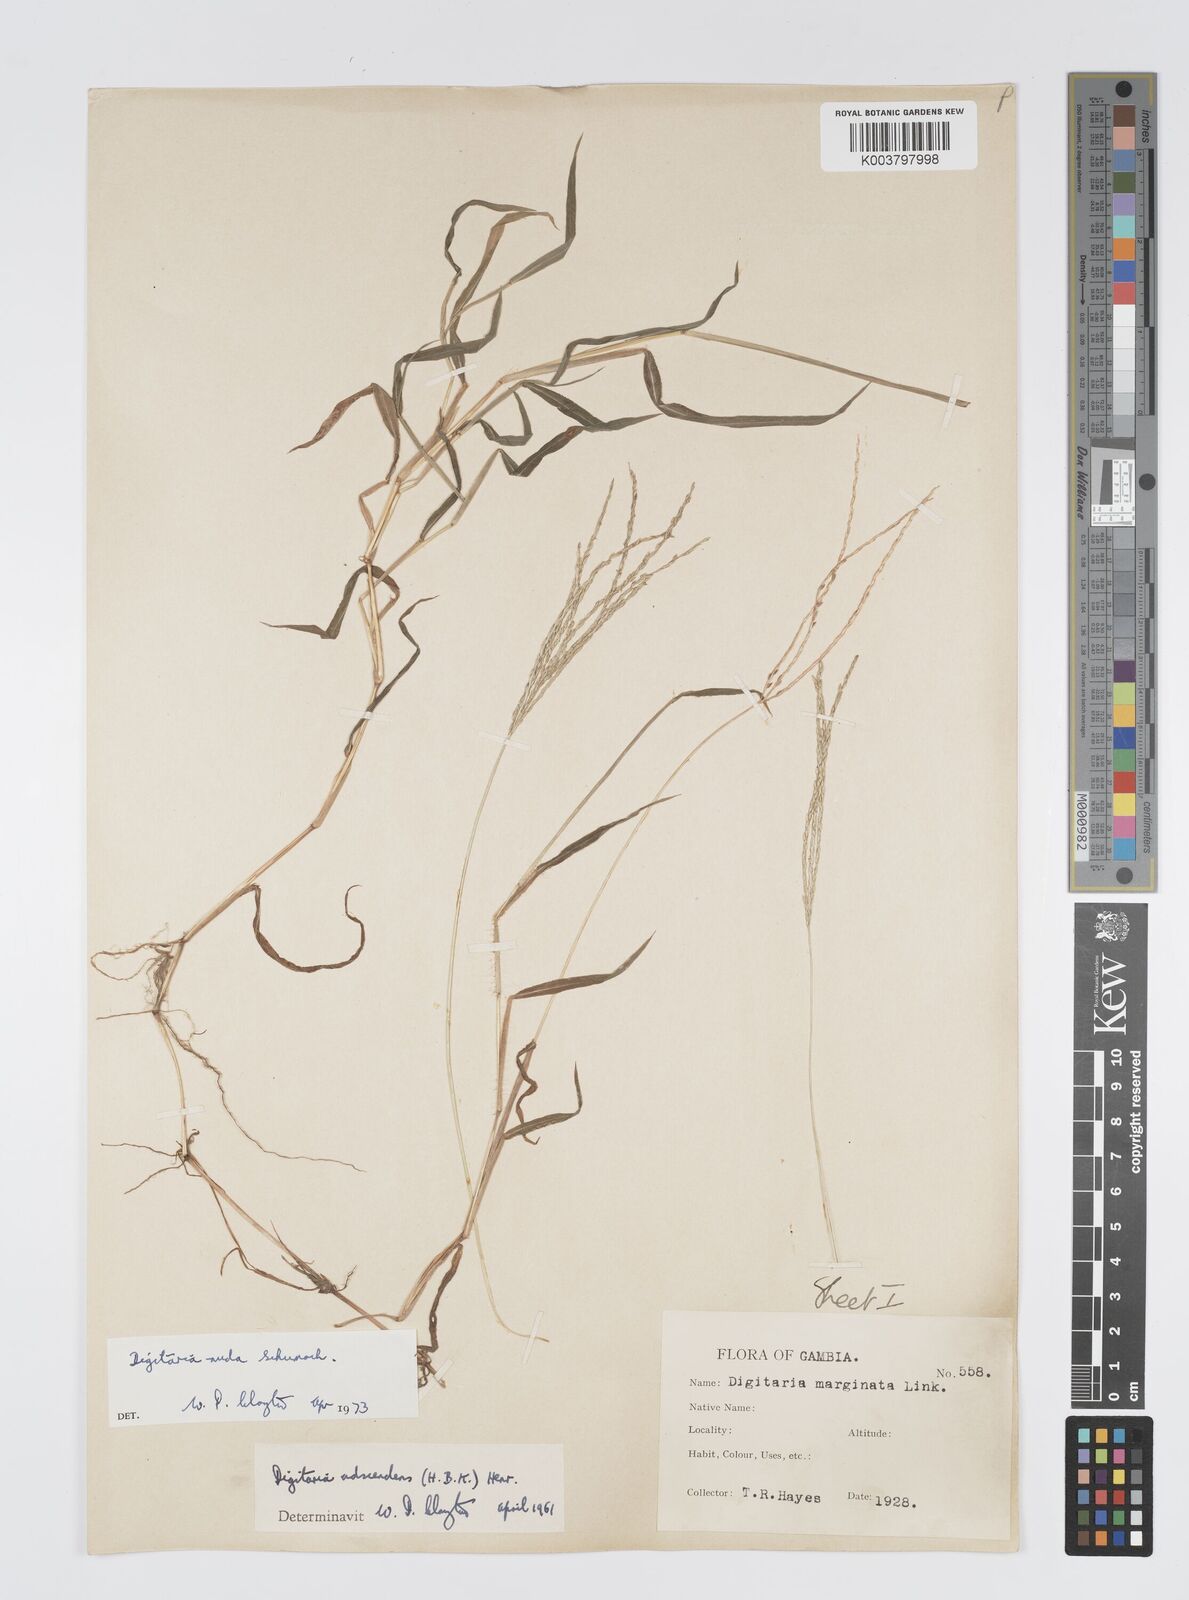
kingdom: Plantae
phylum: Tracheophyta
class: Liliopsida
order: Poales
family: Poaceae
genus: Digitaria
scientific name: Digitaria nuda
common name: Naked crabgrass
